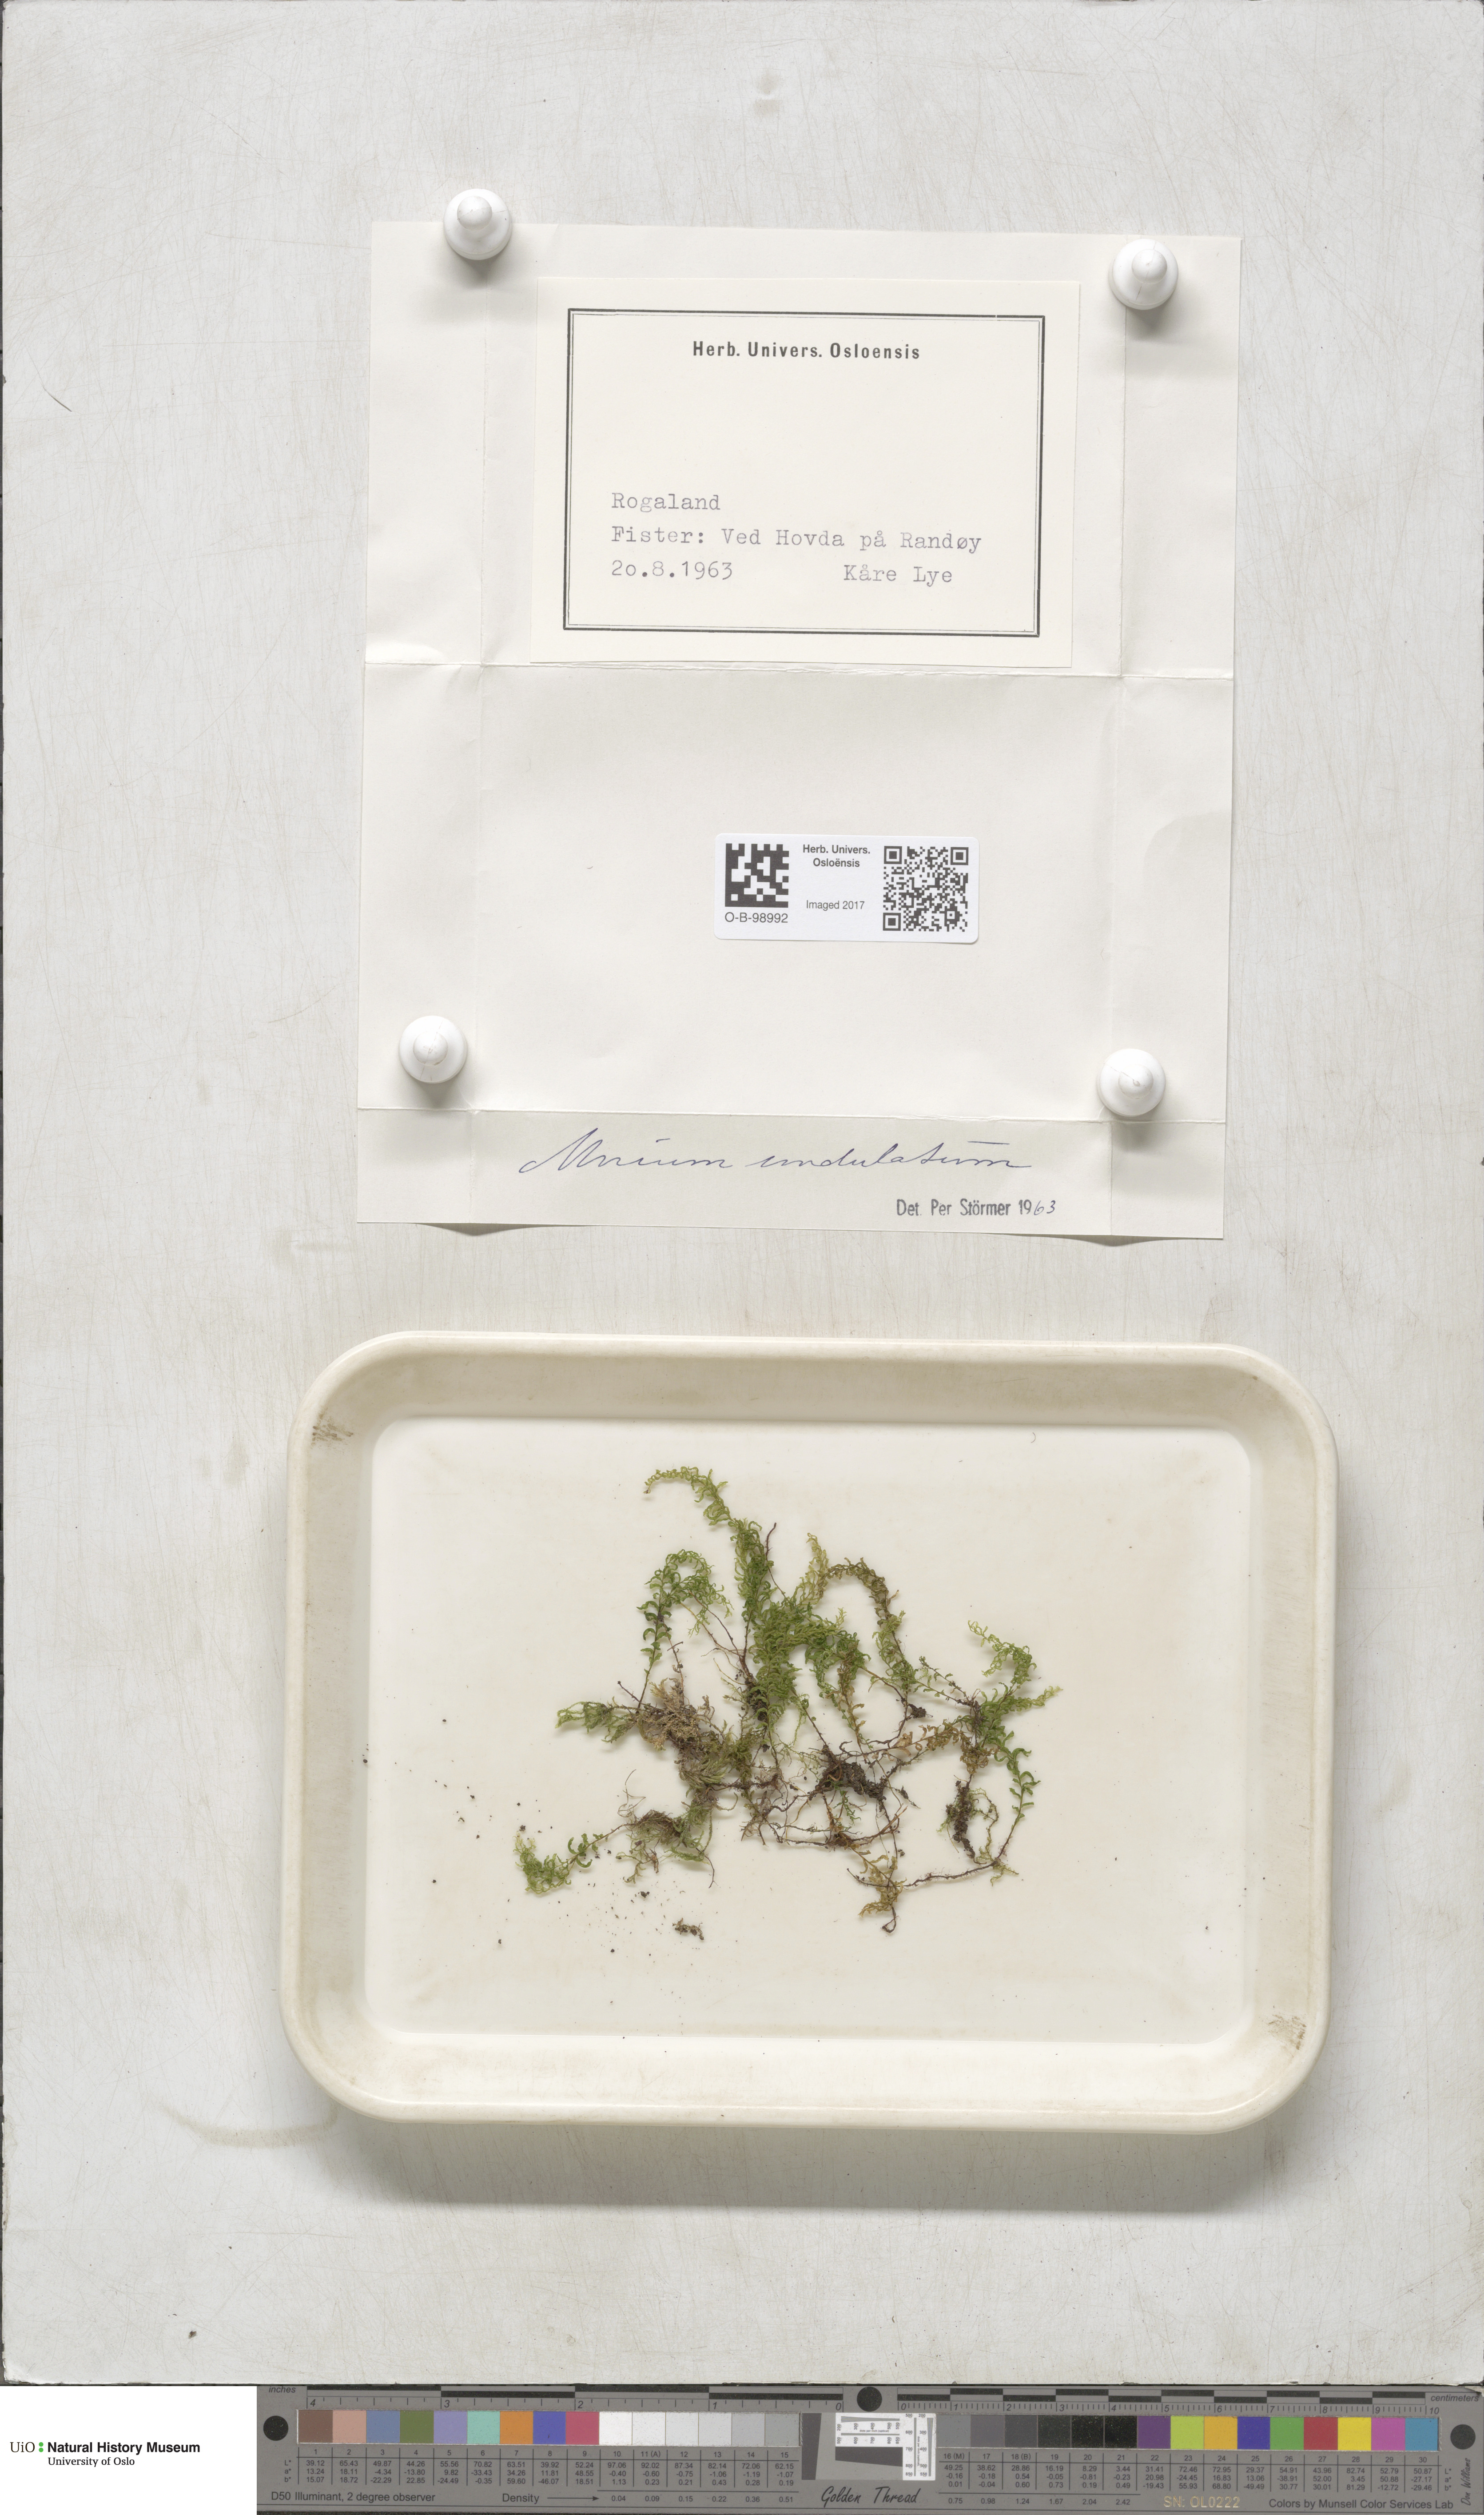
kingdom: Plantae
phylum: Bryophyta
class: Bryopsida
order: Bryales
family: Mniaceae
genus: Plagiomnium
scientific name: Plagiomnium undulatum
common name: Hart's-tongue thyme-moss
